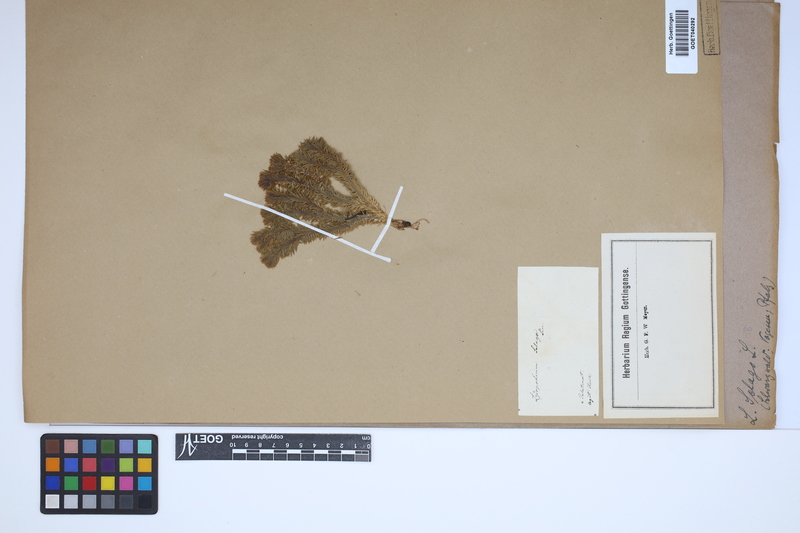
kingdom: Plantae
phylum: Tracheophyta
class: Lycopodiopsida
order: Lycopodiales
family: Lycopodiaceae
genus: Huperzia
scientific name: Huperzia selago
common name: Northern firmoss
